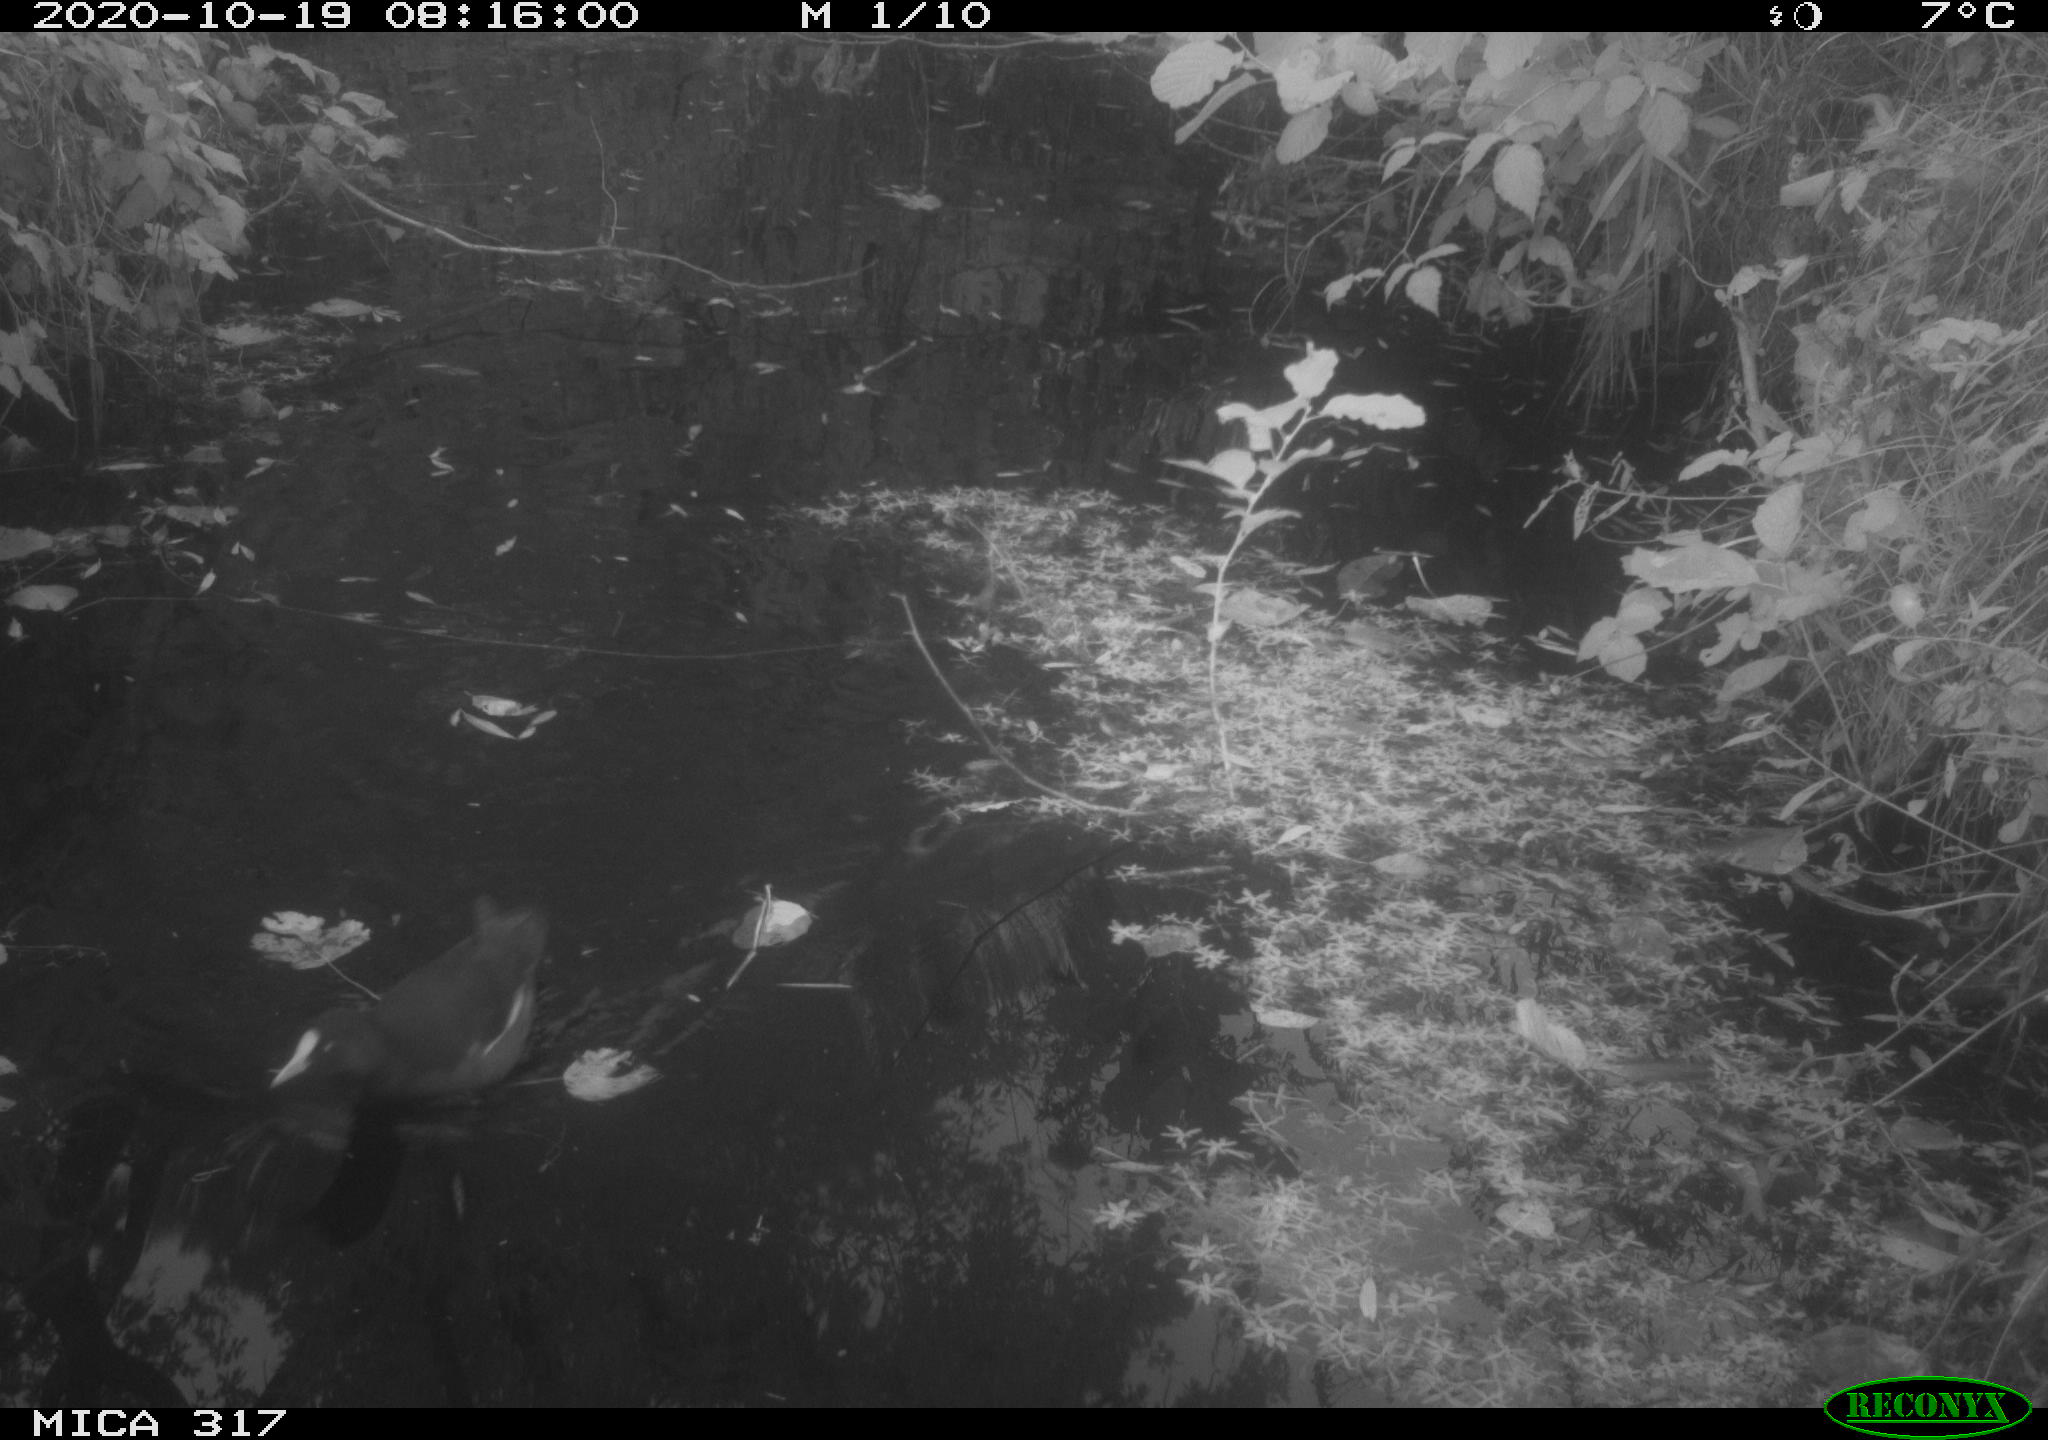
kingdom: Animalia
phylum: Chordata
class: Aves
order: Gruiformes
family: Rallidae
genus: Gallinula
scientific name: Gallinula chloropus
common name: Common moorhen
